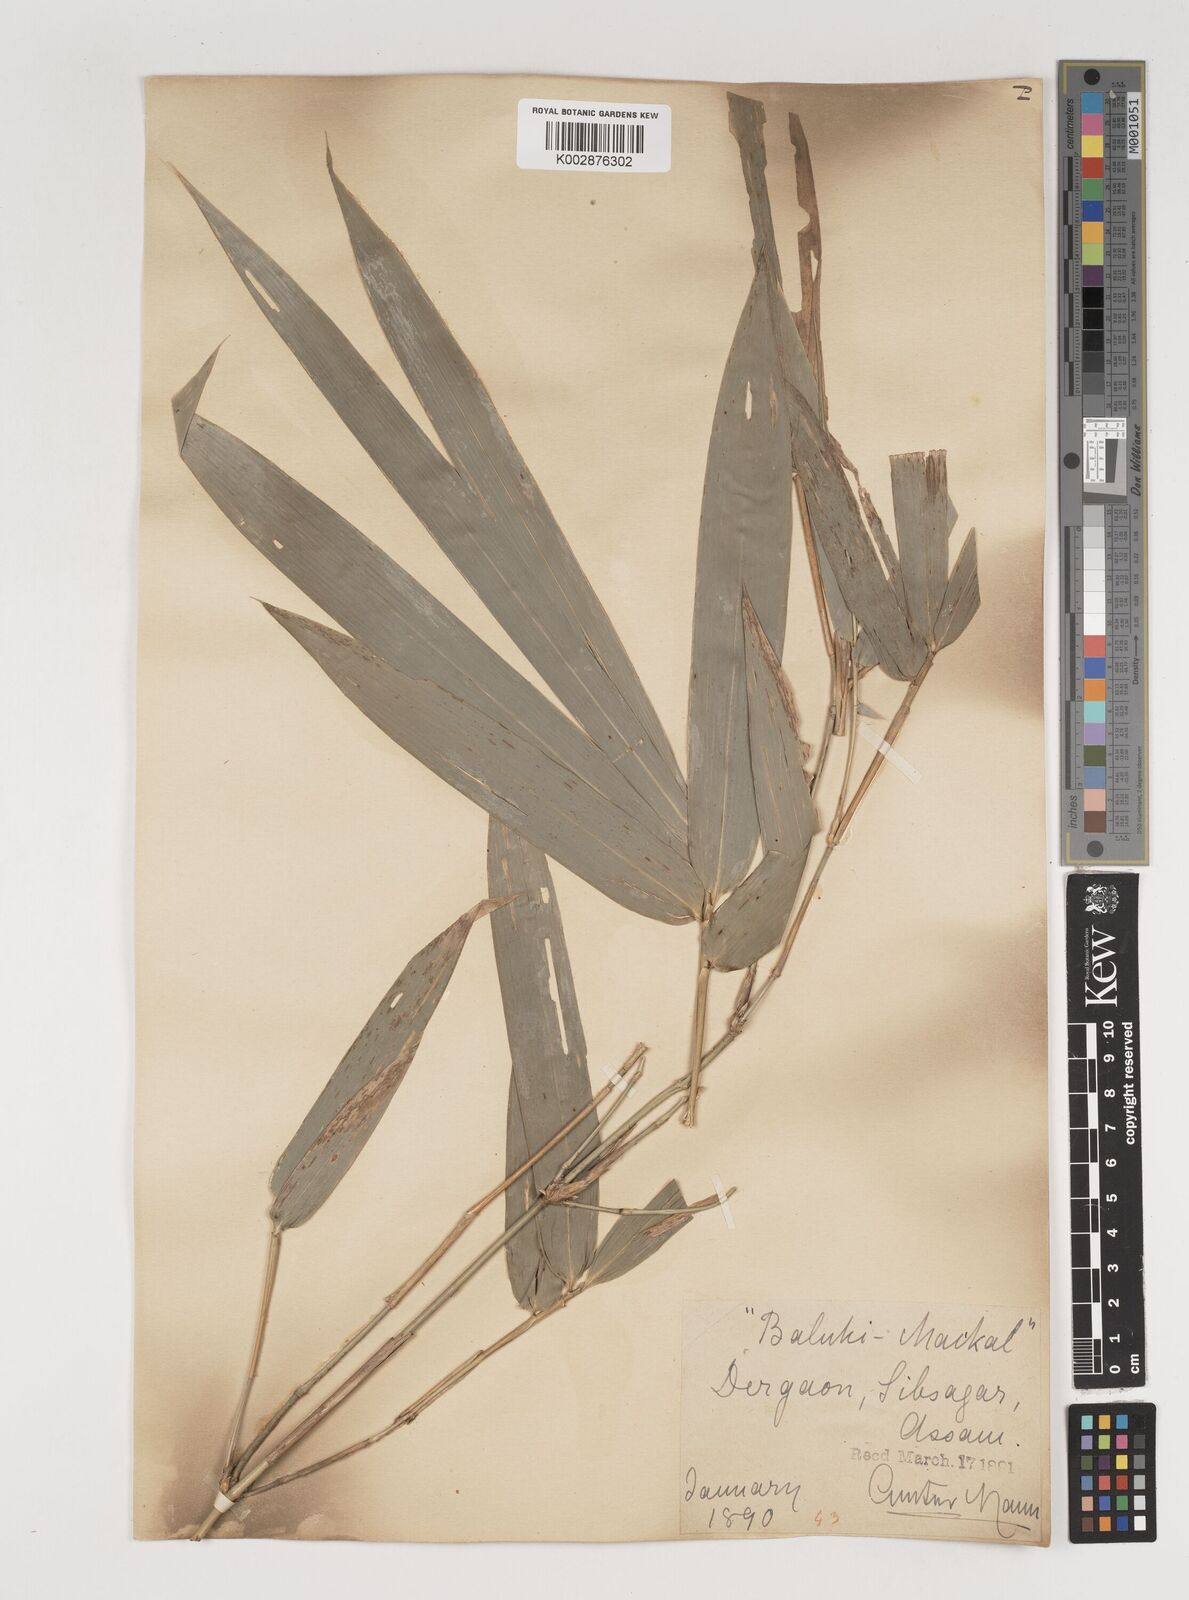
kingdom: Plantae
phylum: Tracheophyta
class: Liliopsida
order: Poales
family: Poaceae
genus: Bambusa
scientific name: Bambusa balcooa
